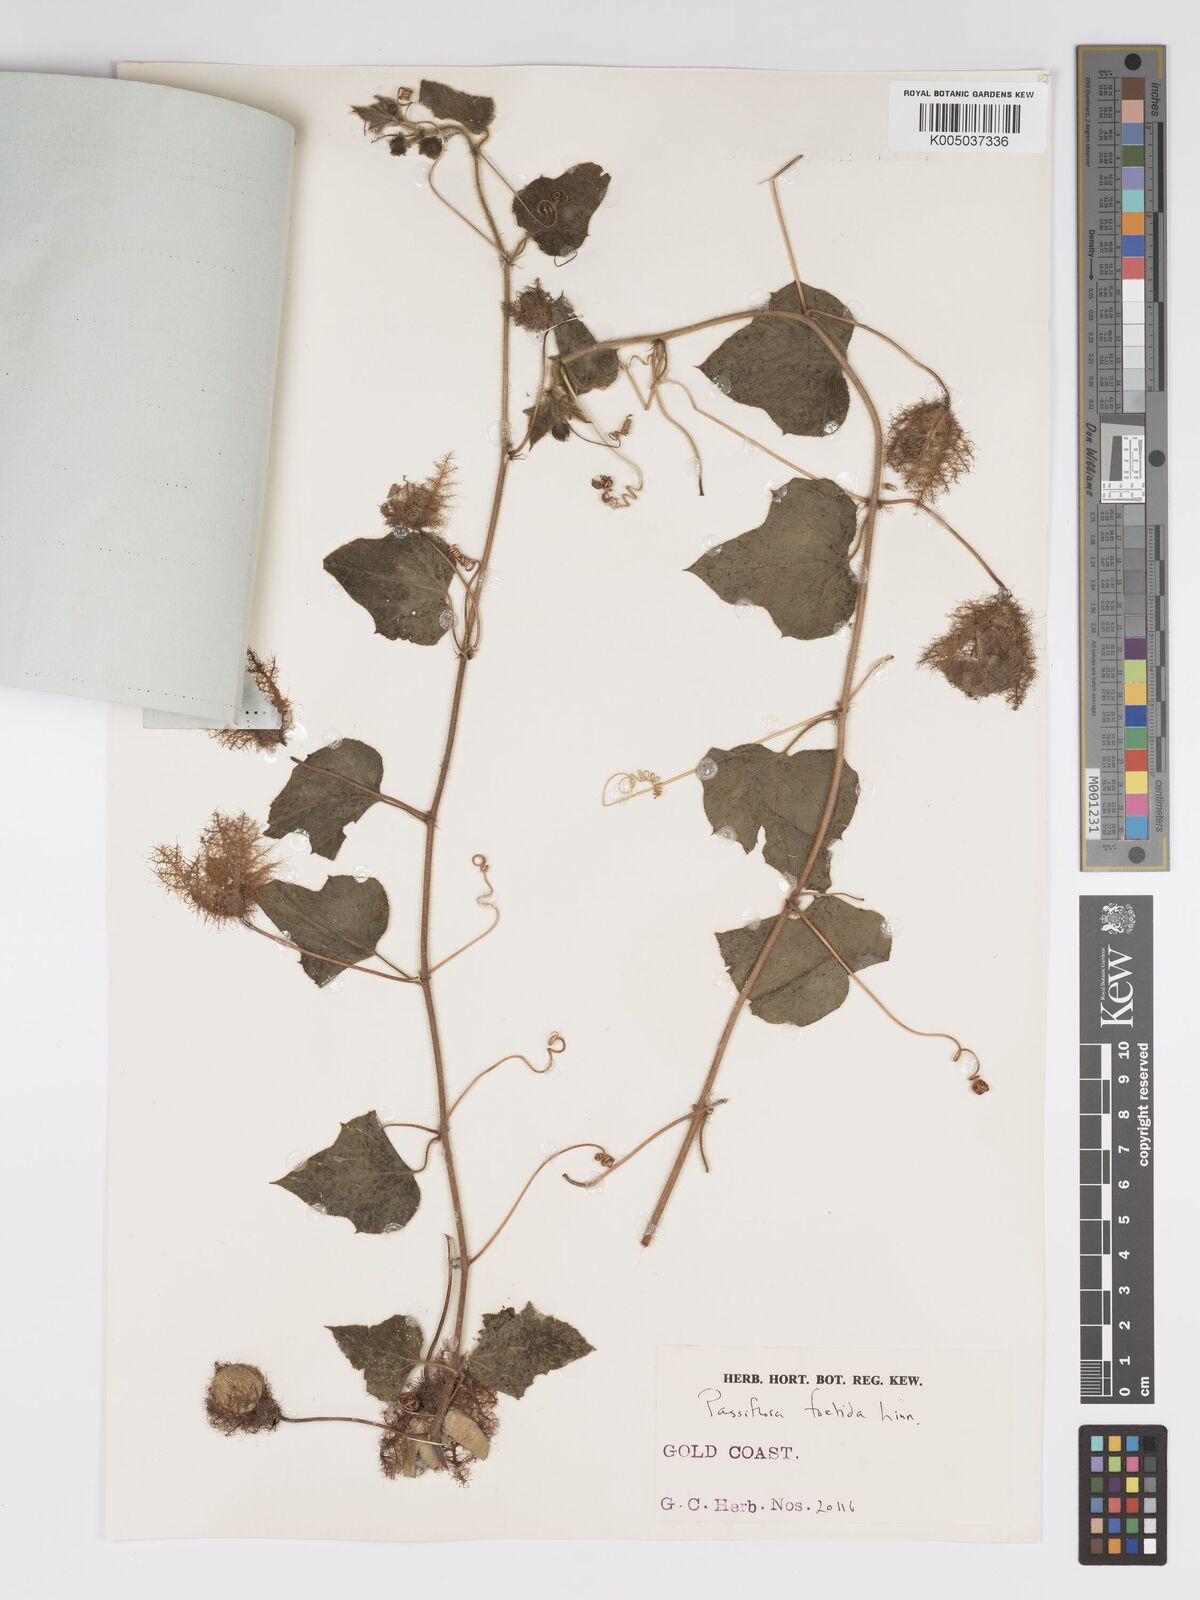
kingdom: Plantae
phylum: Tracheophyta
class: Magnoliopsida
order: Malpighiales
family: Passifloraceae
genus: Passiflora
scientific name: Passiflora foetida
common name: Fetid passionflower
